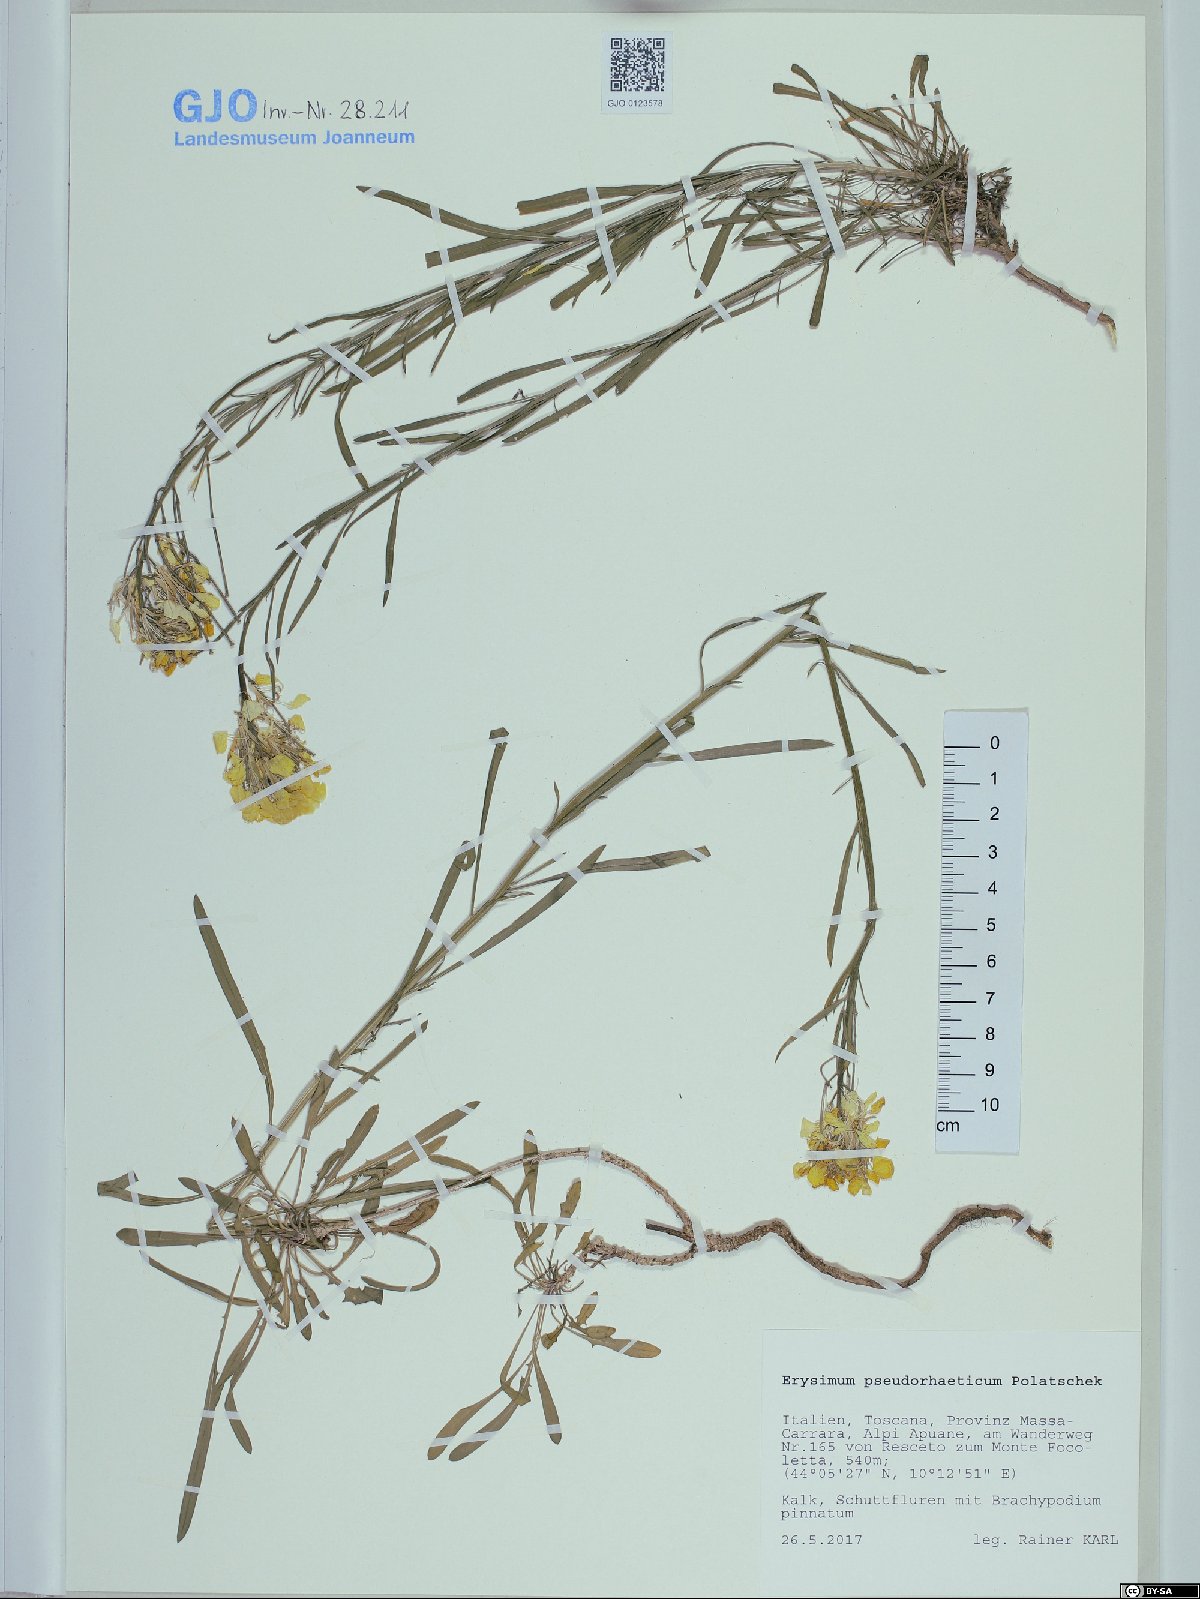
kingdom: Plantae
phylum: Tracheophyta
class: Magnoliopsida
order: Brassicales
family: Brassicaceae
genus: Erysimum
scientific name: Erysimum pseudorhaeticum
